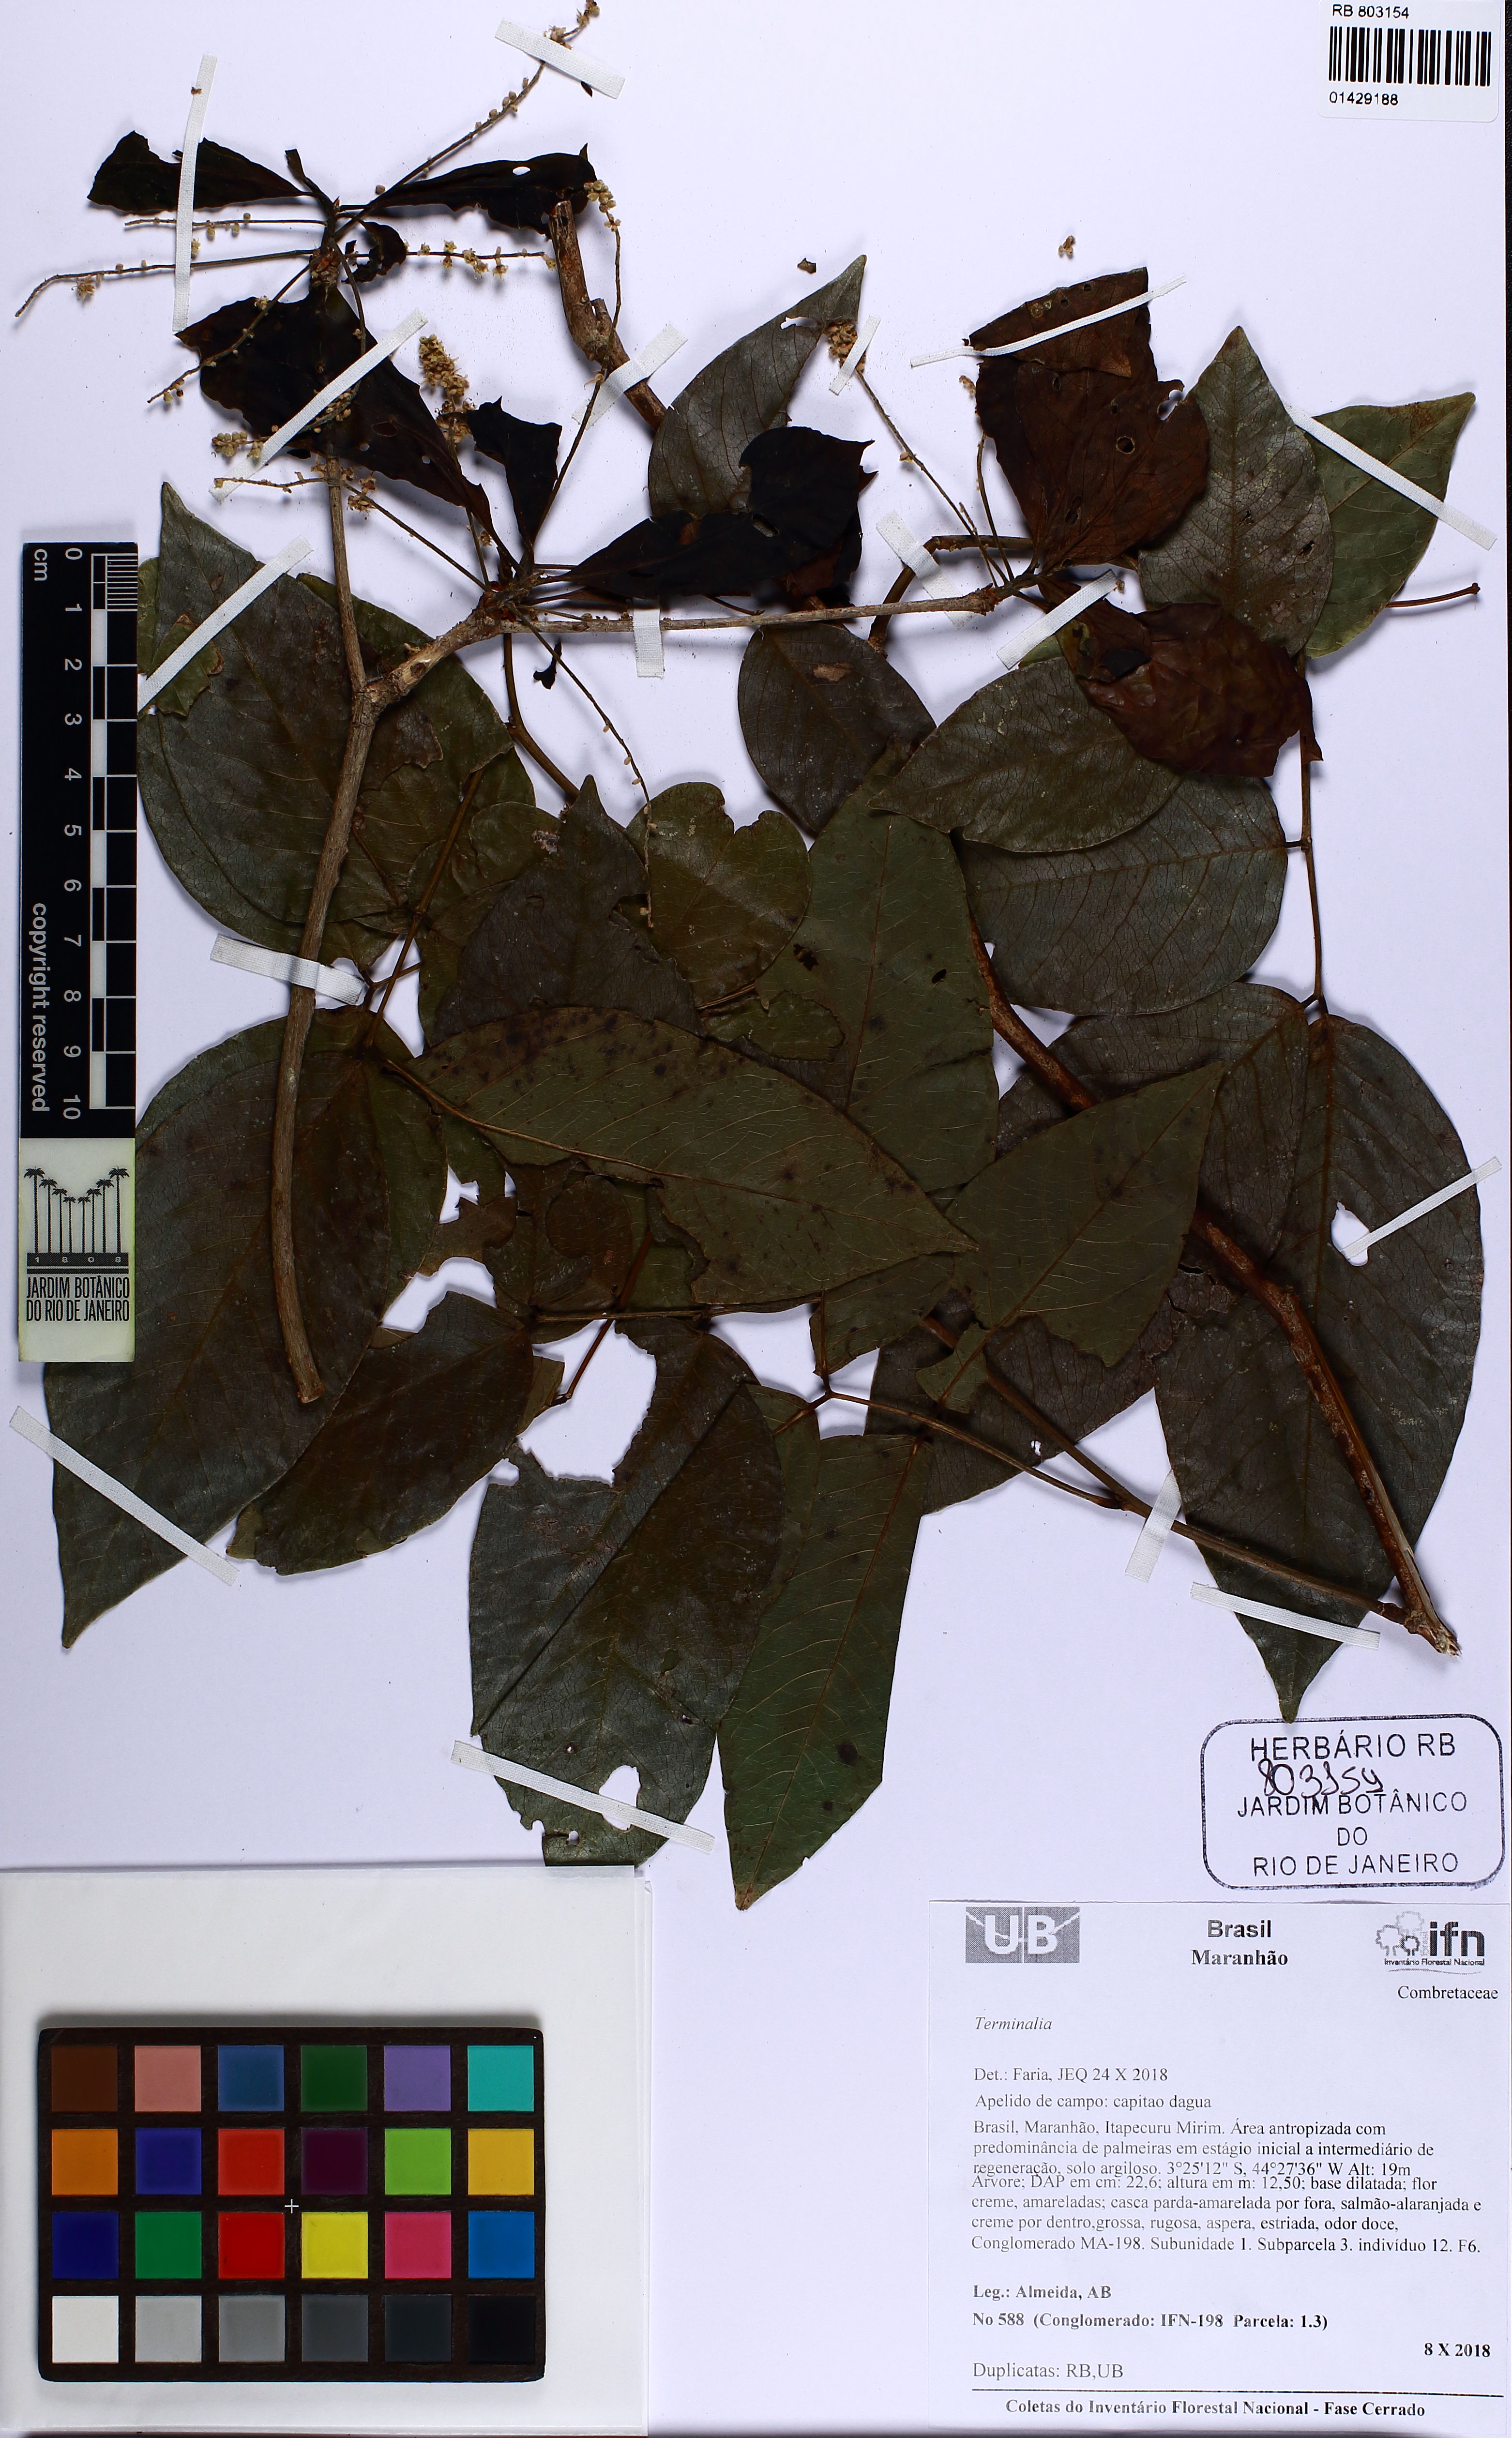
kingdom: Plantae
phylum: Tracheophyta
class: Magnoliopsida
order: Myrtales
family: Combretaceae
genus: Terminalia
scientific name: Terminalia
